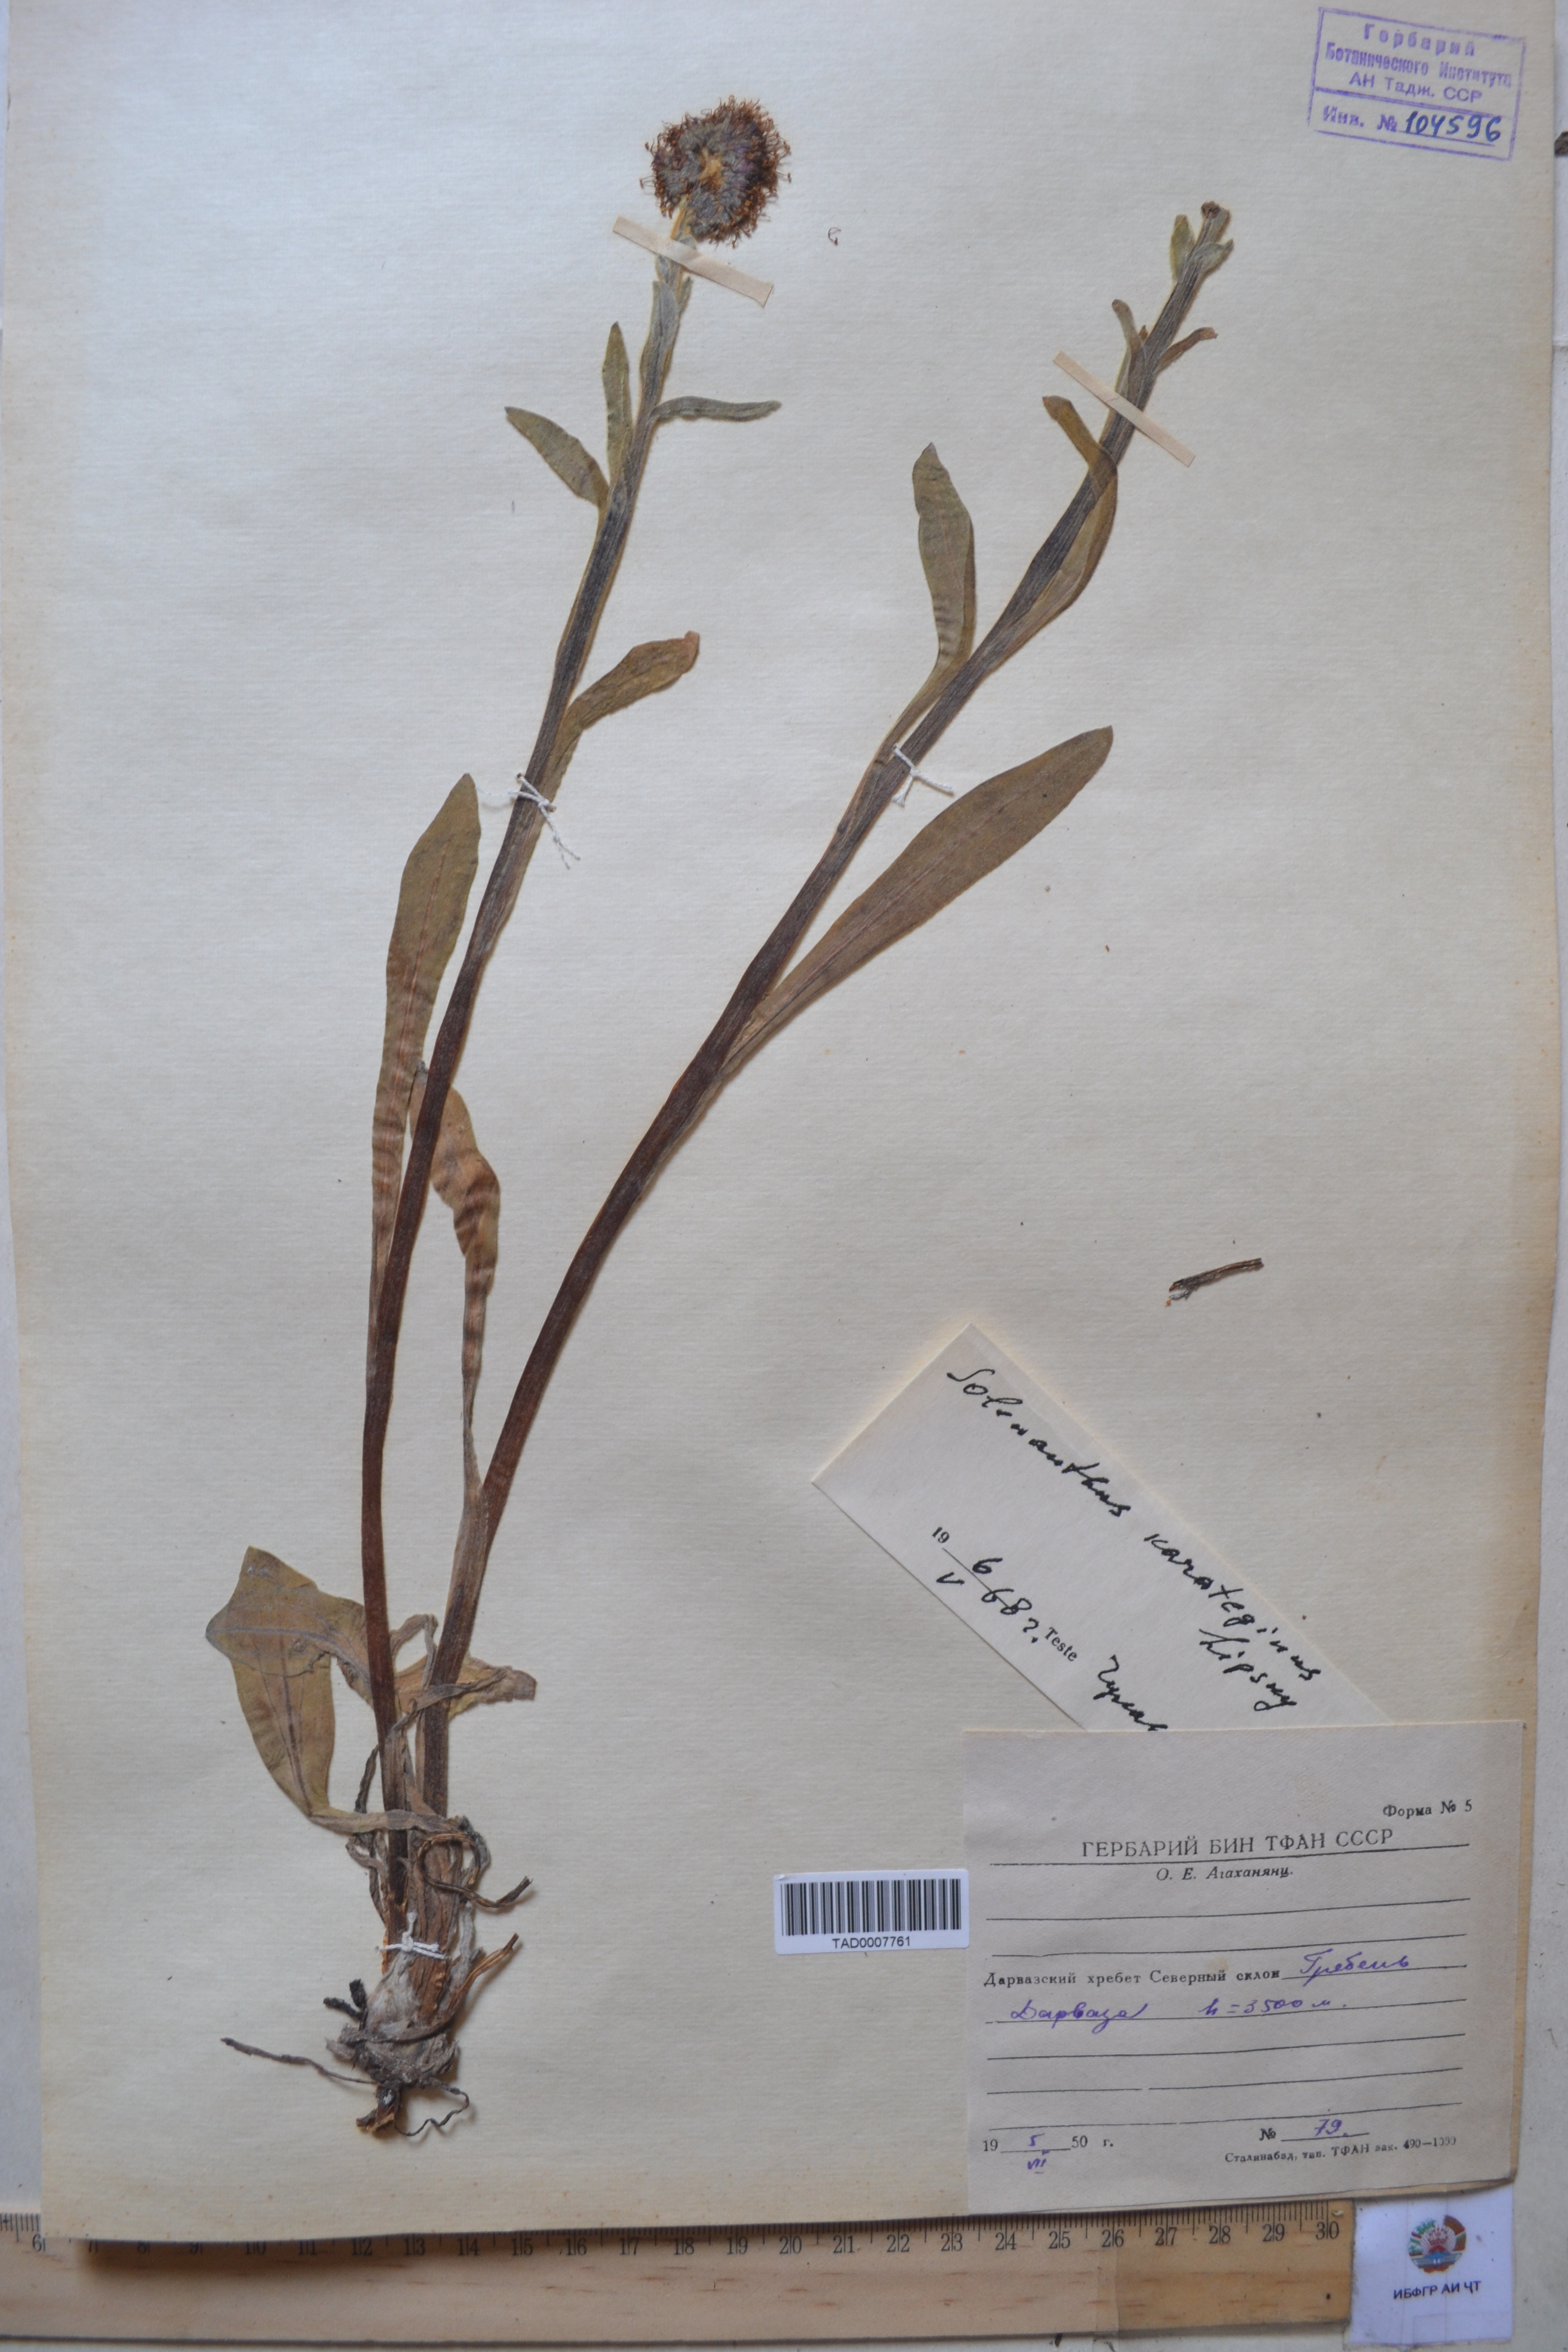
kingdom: Plantae
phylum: Tracheophyta
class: Magnoliopsida
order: Boraginales
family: Boraginaceae
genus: Solenanthus
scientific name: Solenanthus karateginus
